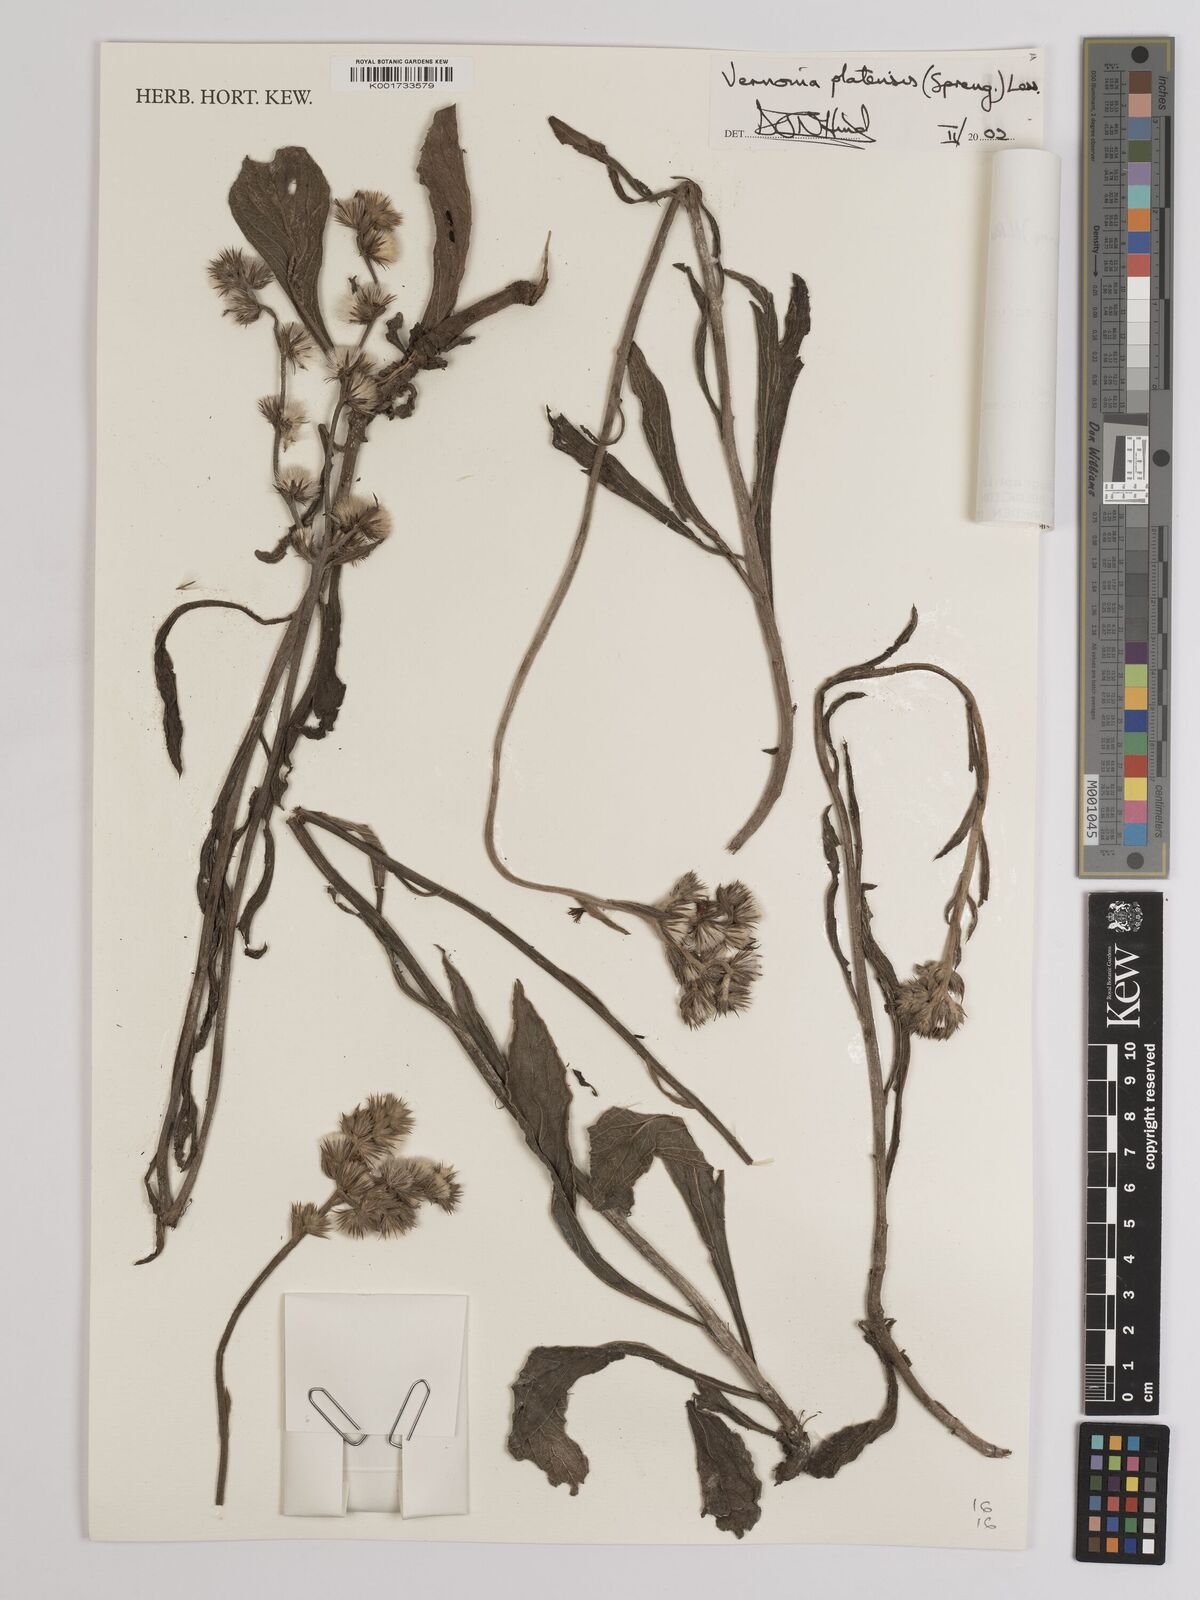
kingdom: Plantae
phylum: Tracheophyta
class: Magnoliopsida
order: Asterales
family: Asteraceae
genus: Chrysolaena
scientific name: Chrysolaena platensis
